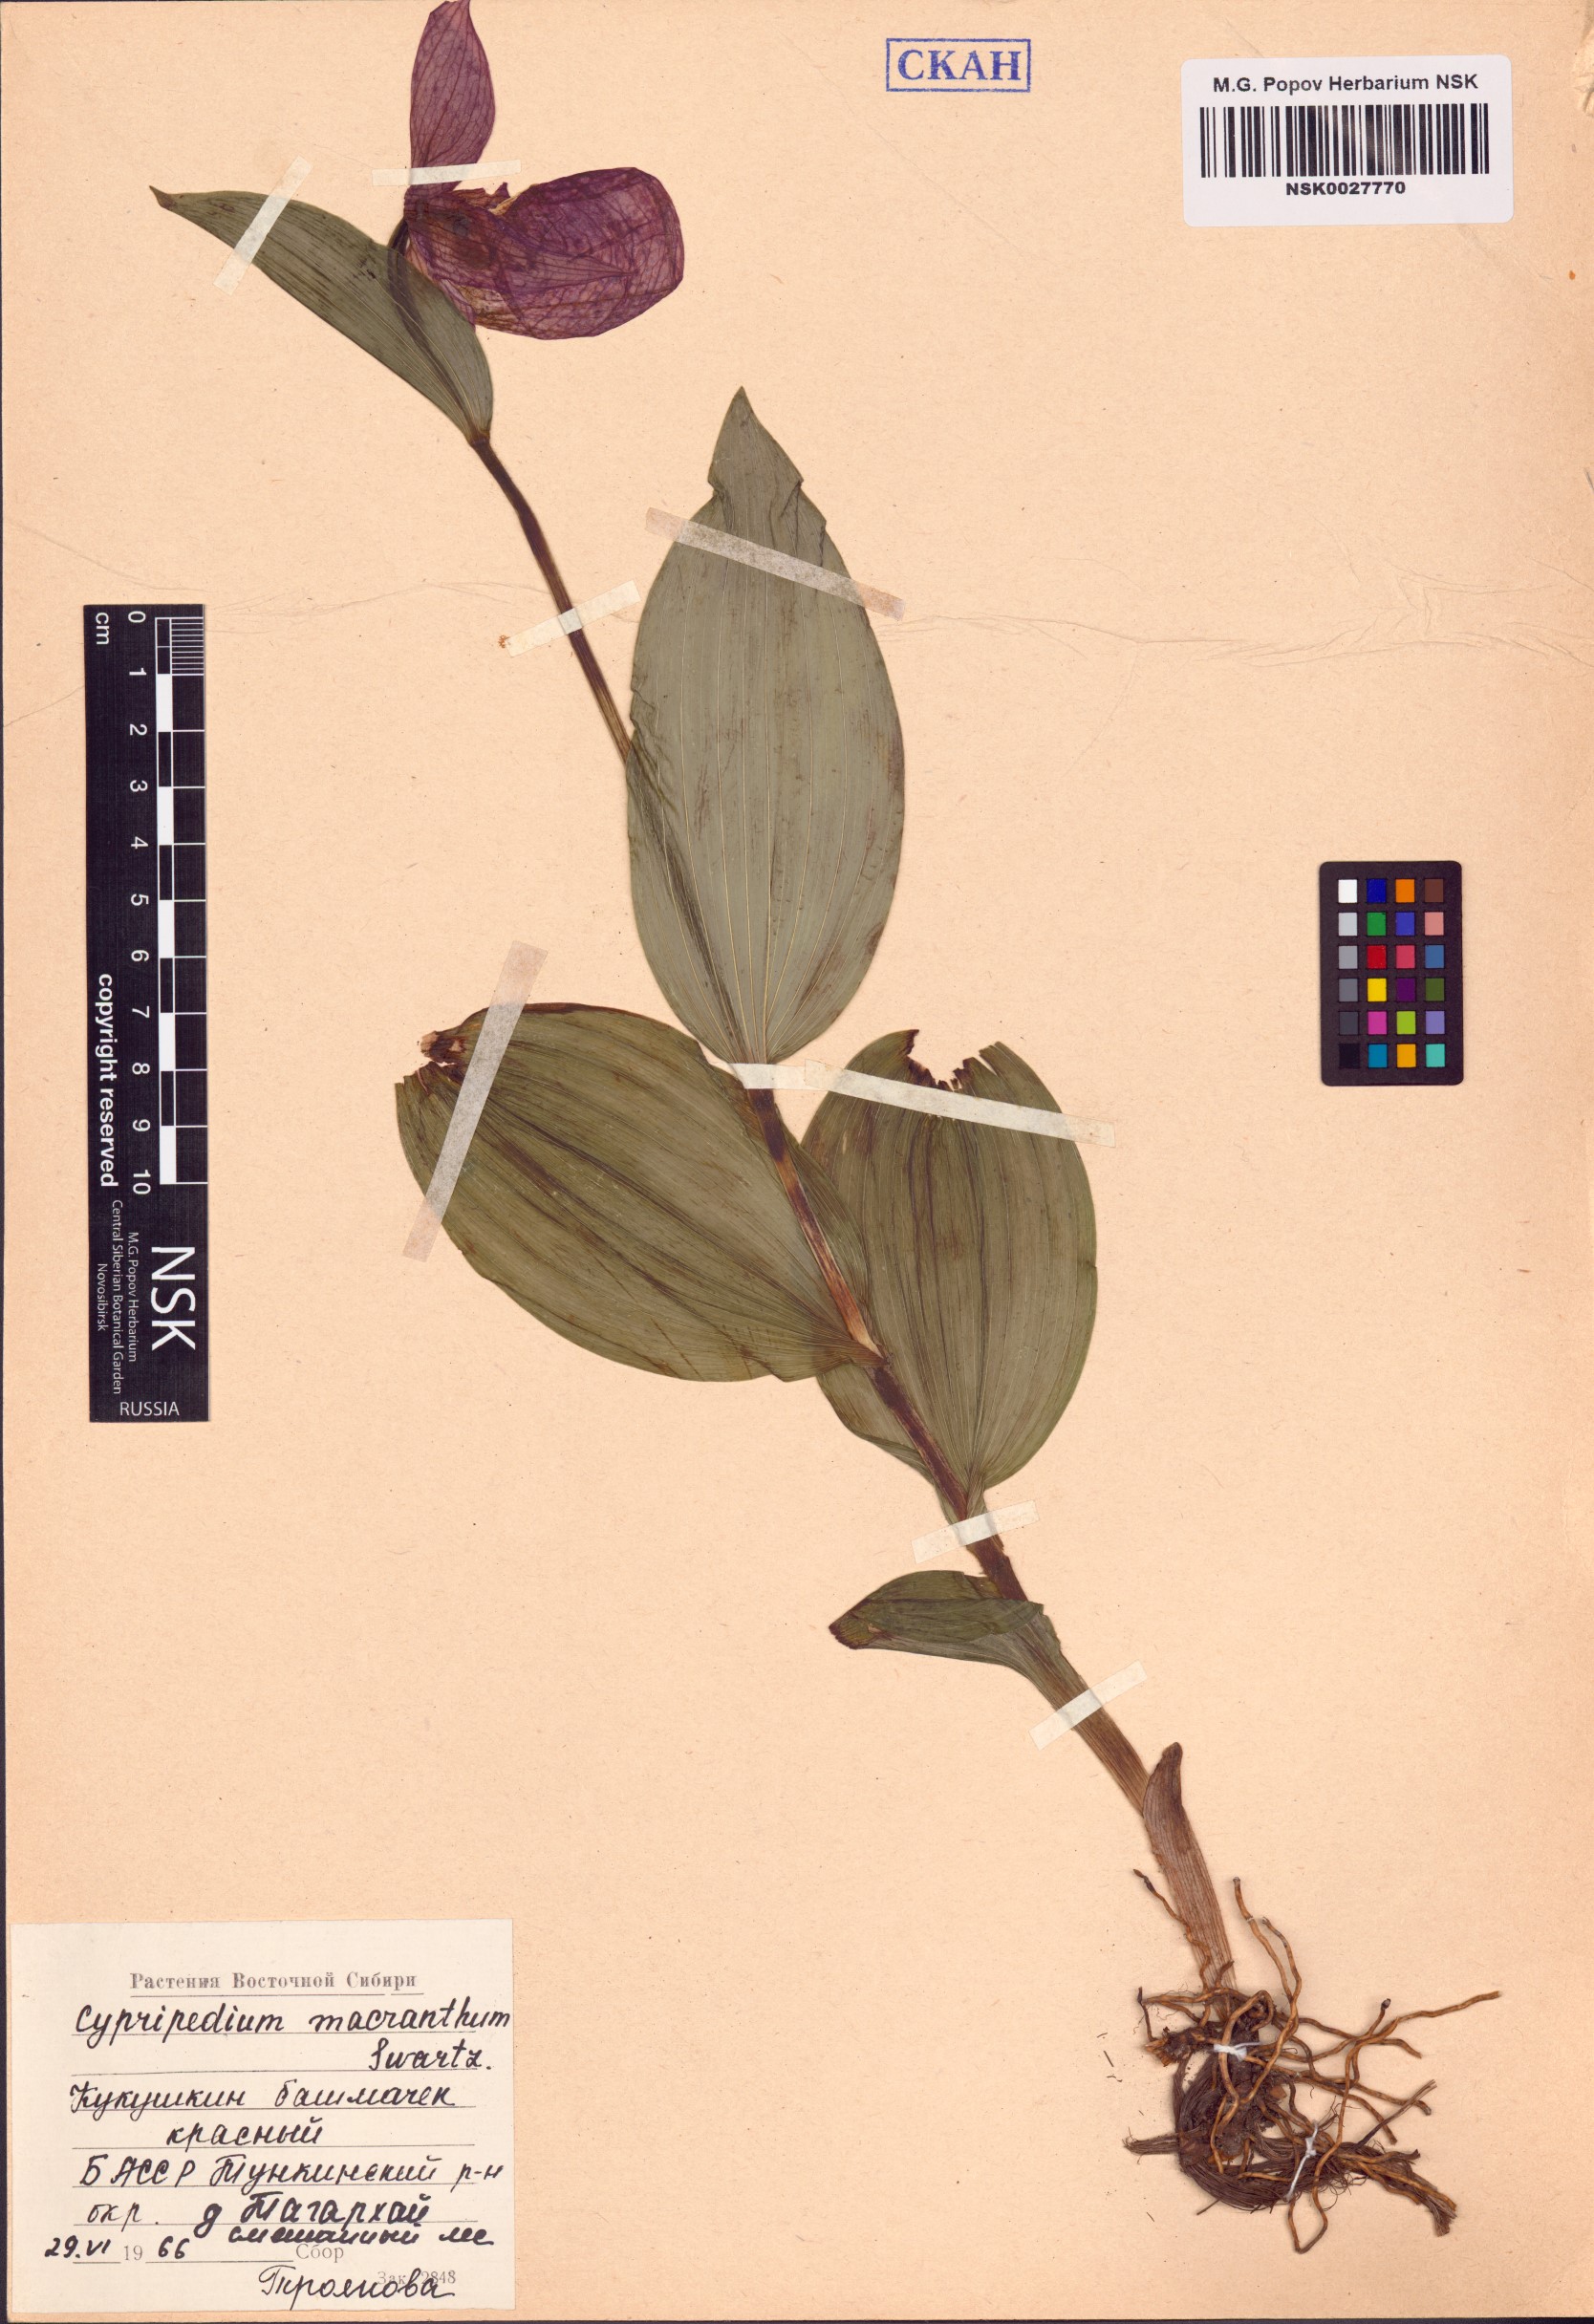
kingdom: Plantae
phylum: Tracheophyta
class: Liliopsida
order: Asparagales
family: Orchidaceae
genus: Cypripedium
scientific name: Cypripedium macranthos
